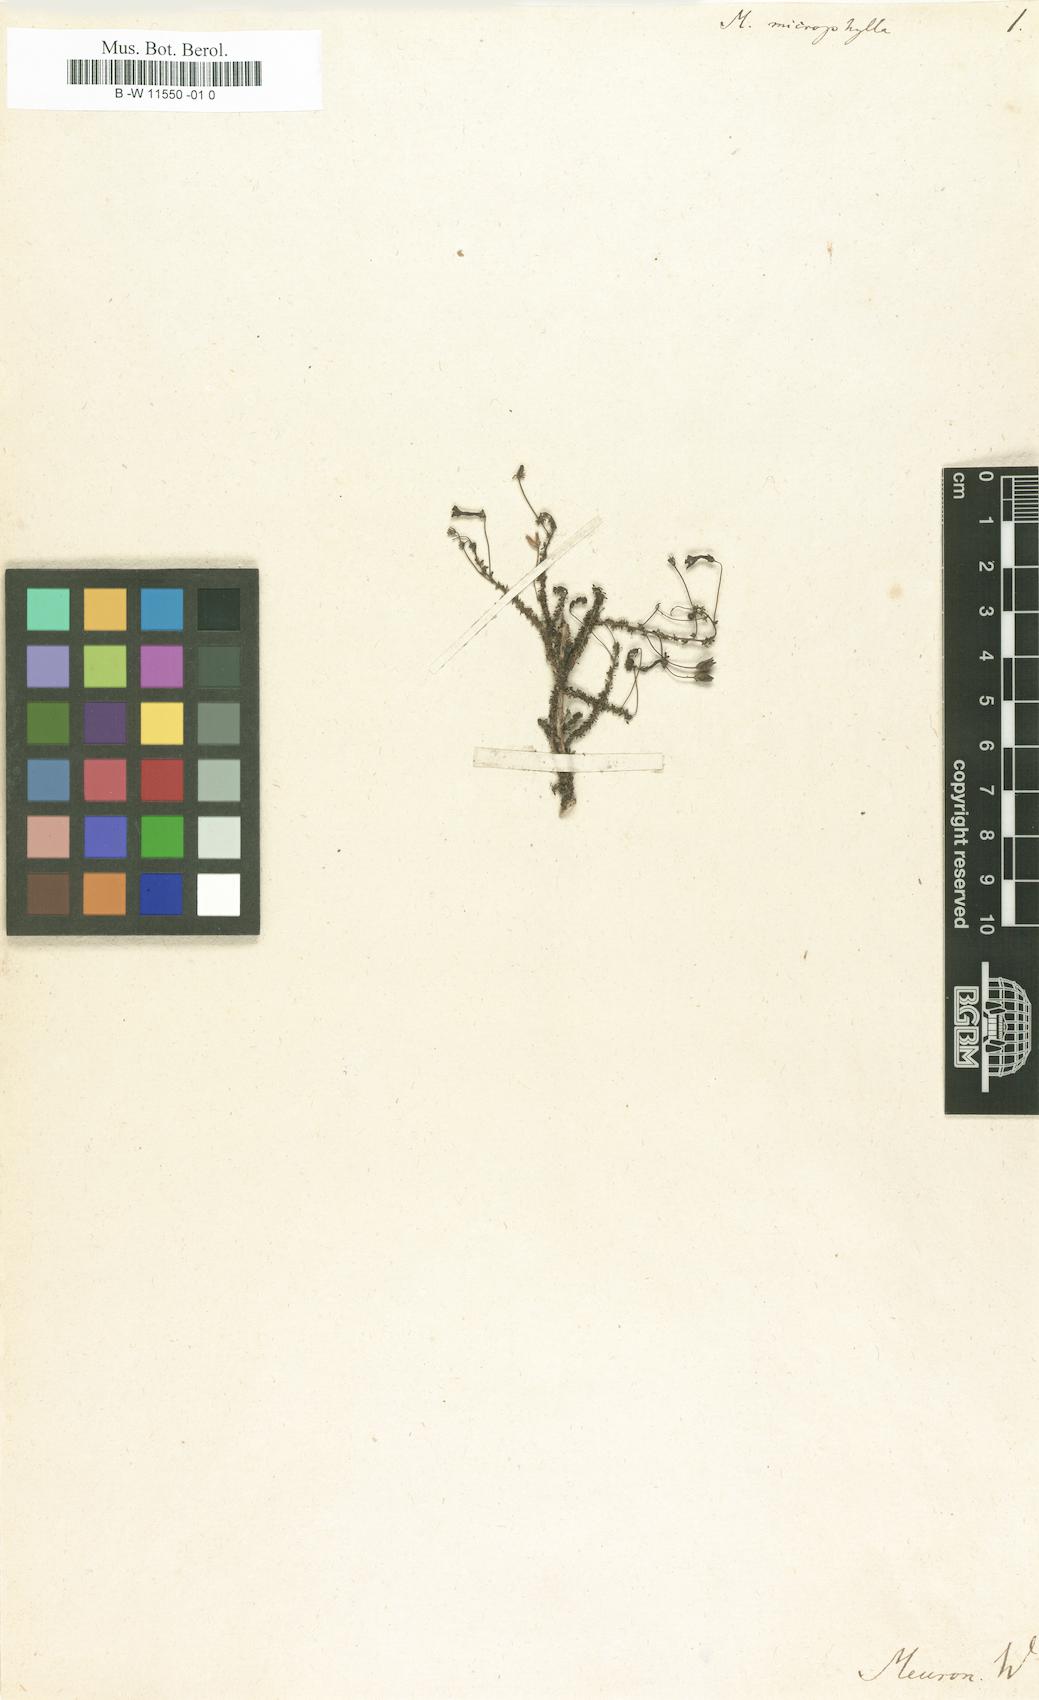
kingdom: Plantae
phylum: Tracheophyta
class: Magnoliopsida
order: Lamiales
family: Scrophulariaceae
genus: Jamesbrittenia
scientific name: Jamesbrittenia microphylla
